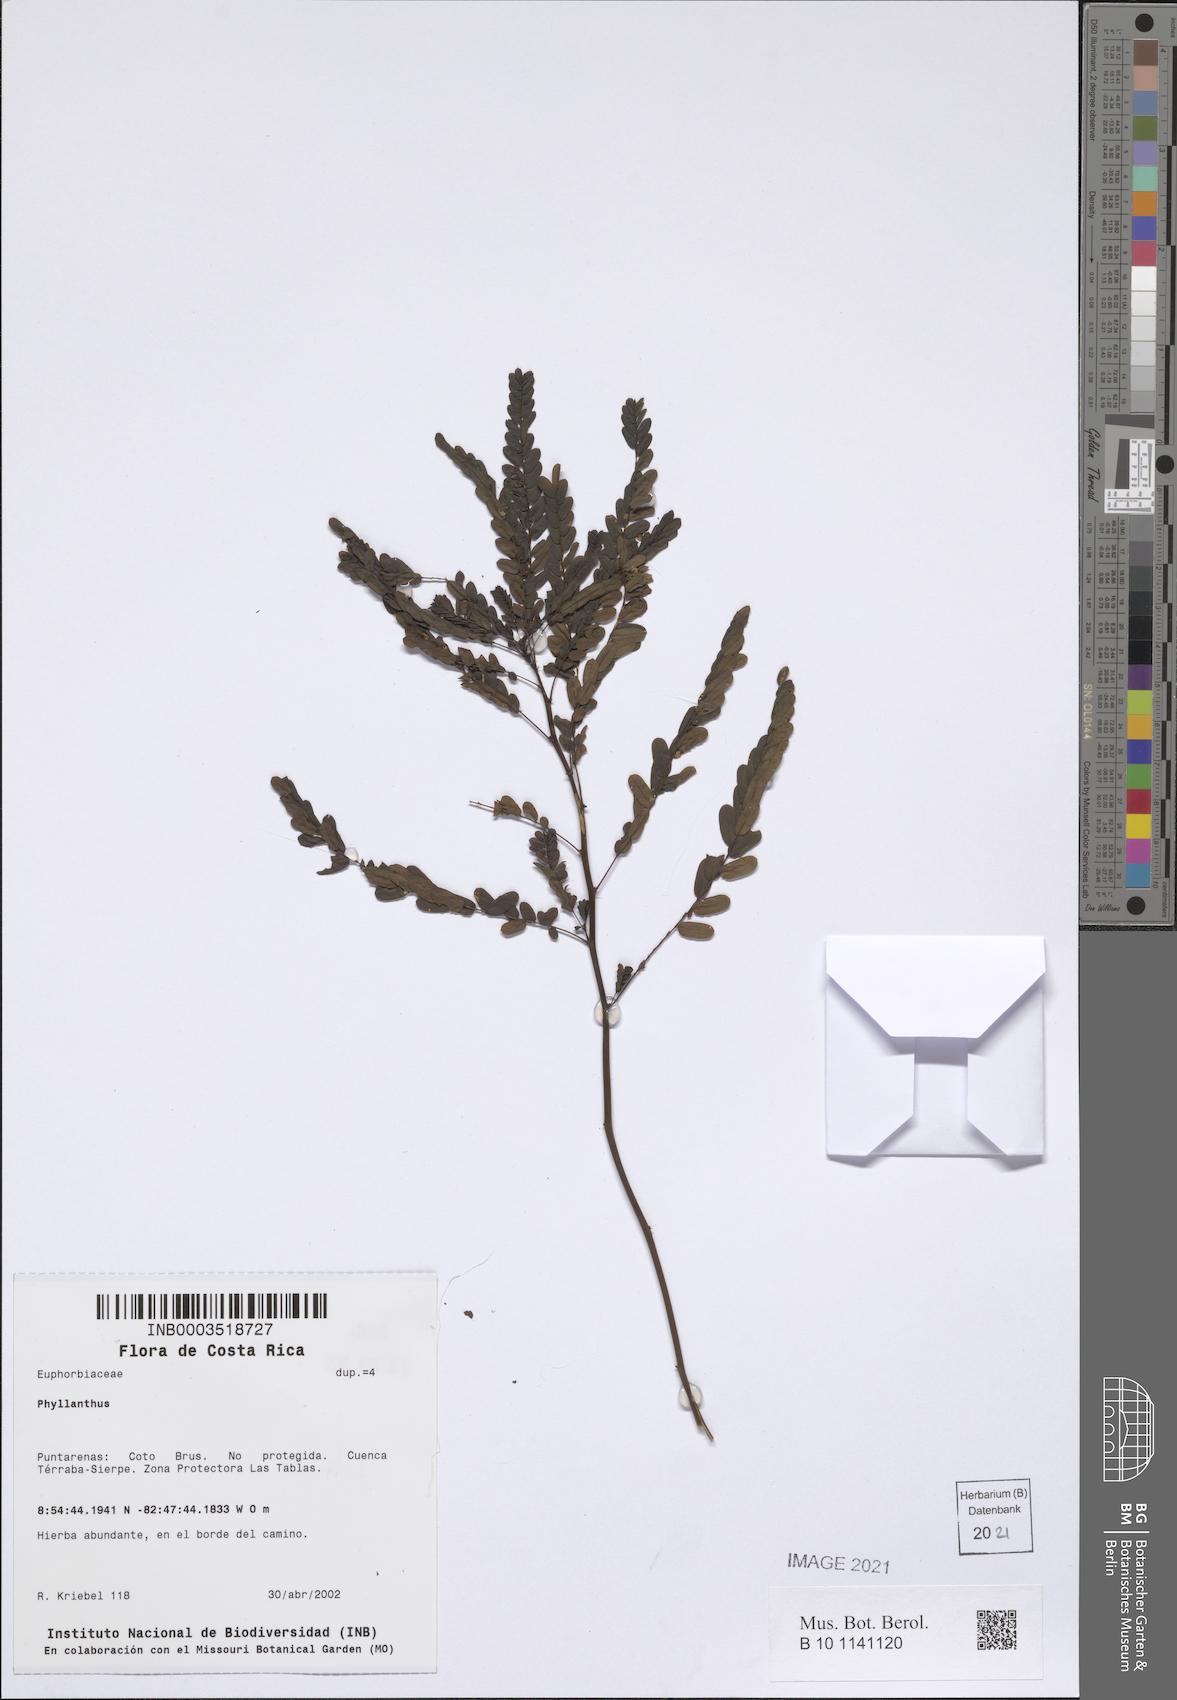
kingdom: Plantae
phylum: Tracheophyta
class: Magnoliopsida
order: Malpighiales
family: Phyllanthaceae
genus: Phyllanthus
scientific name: Phyllanthus
